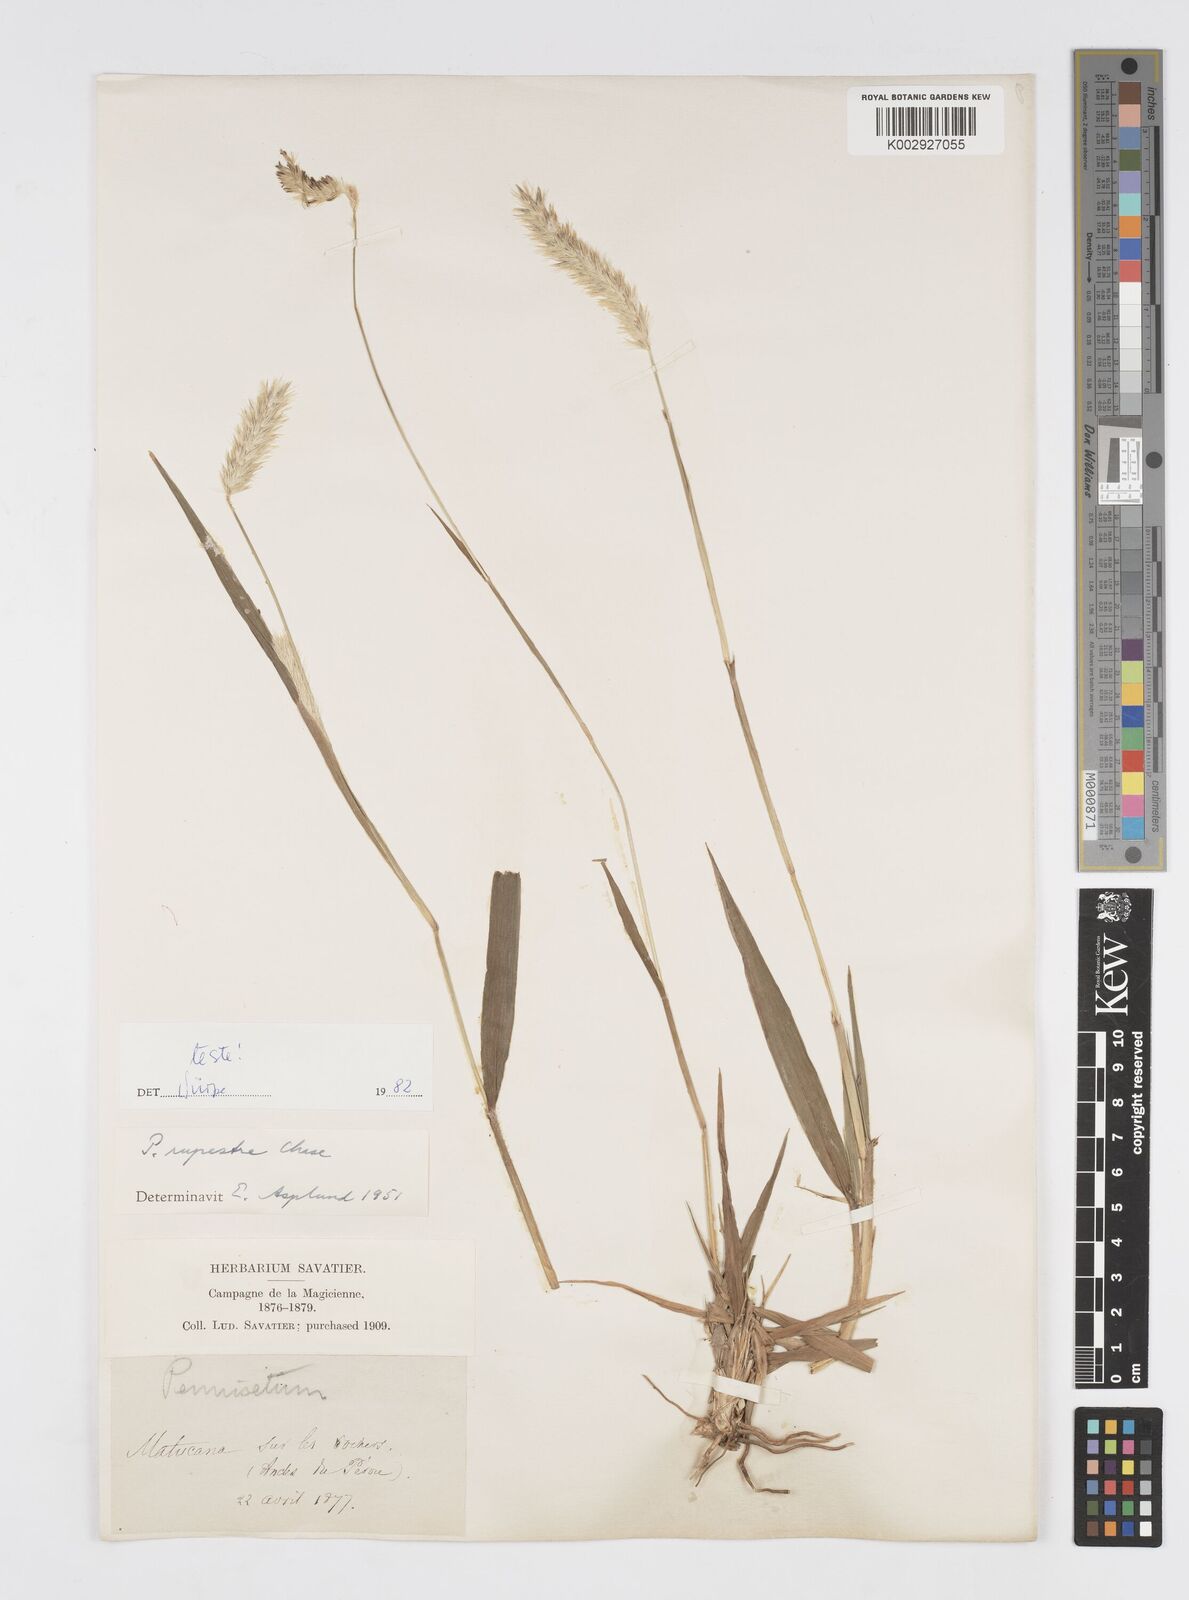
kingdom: Plantae
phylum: Tracheophyta
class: Liliopsida
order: Poales
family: Poaceae
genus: Cenchrus
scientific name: Cenchrus rupestris
